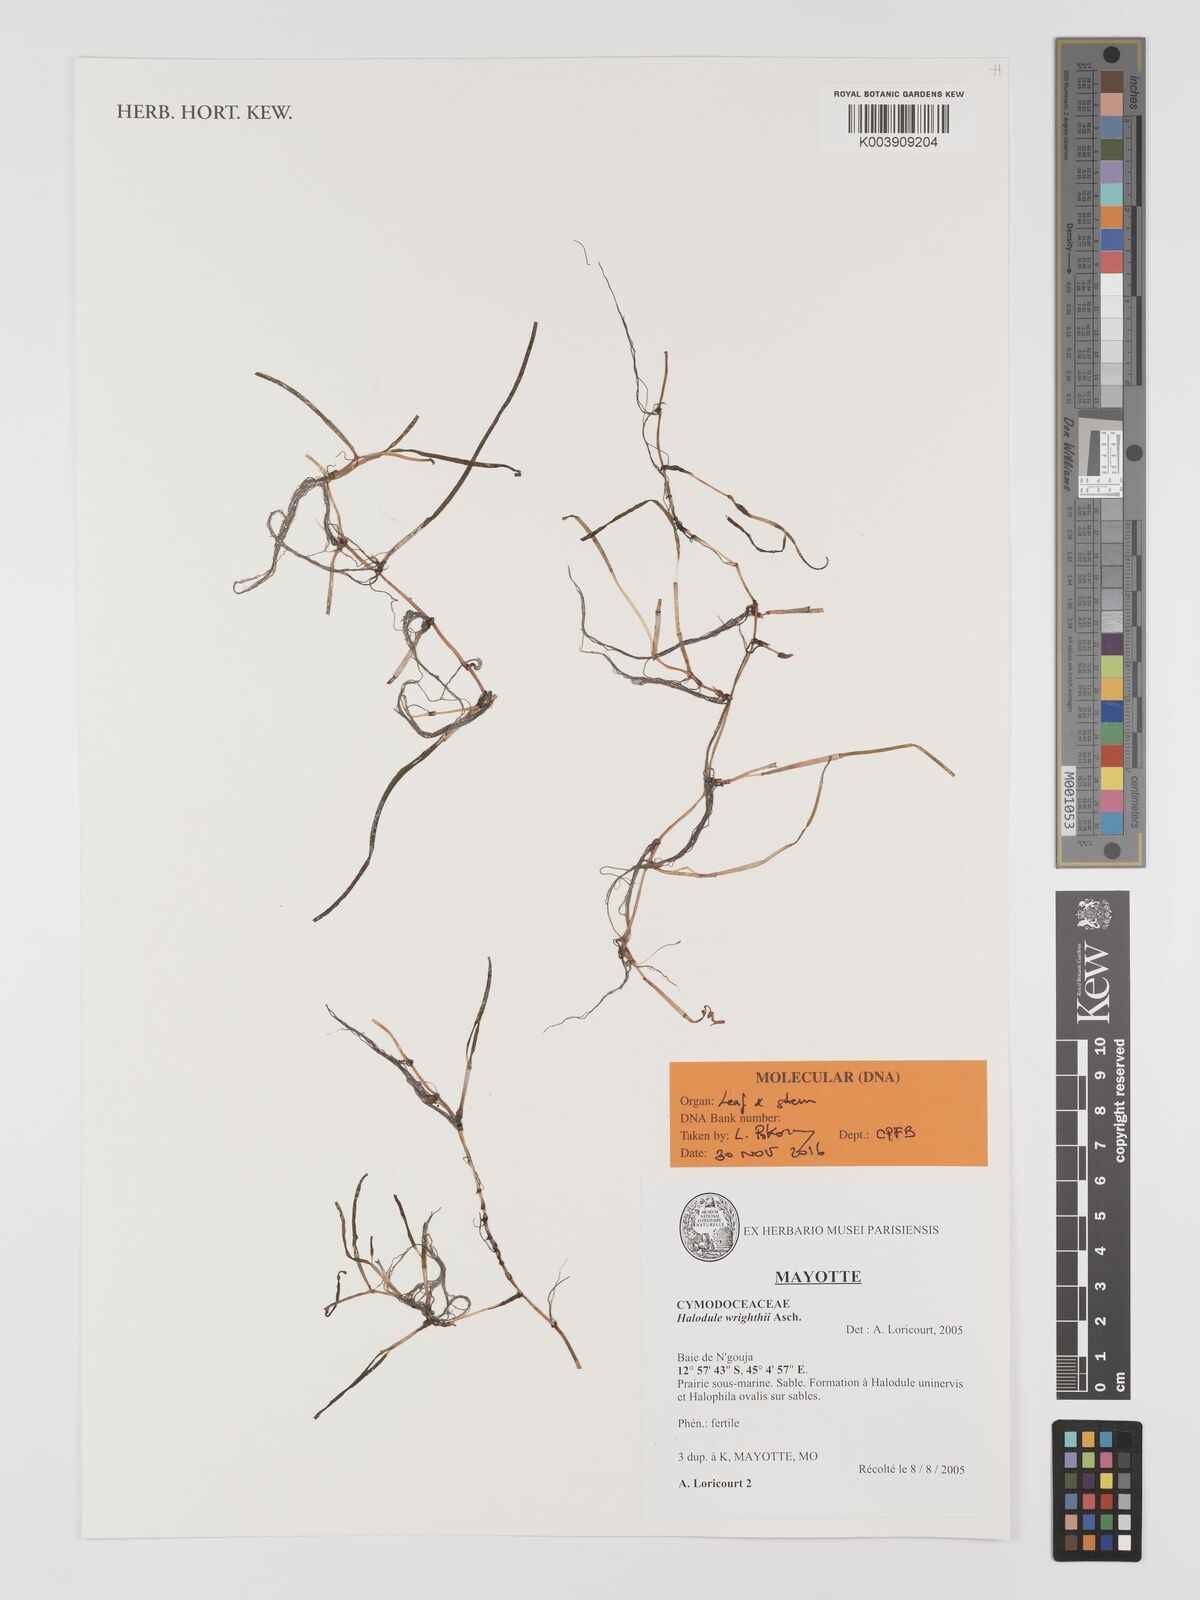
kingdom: Plantae
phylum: Tracheophyta
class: Liliopsida
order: Alismatales
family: Cymodoceaceae
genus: Halodule
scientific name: Halodule wrightii
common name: Shoalgrass
